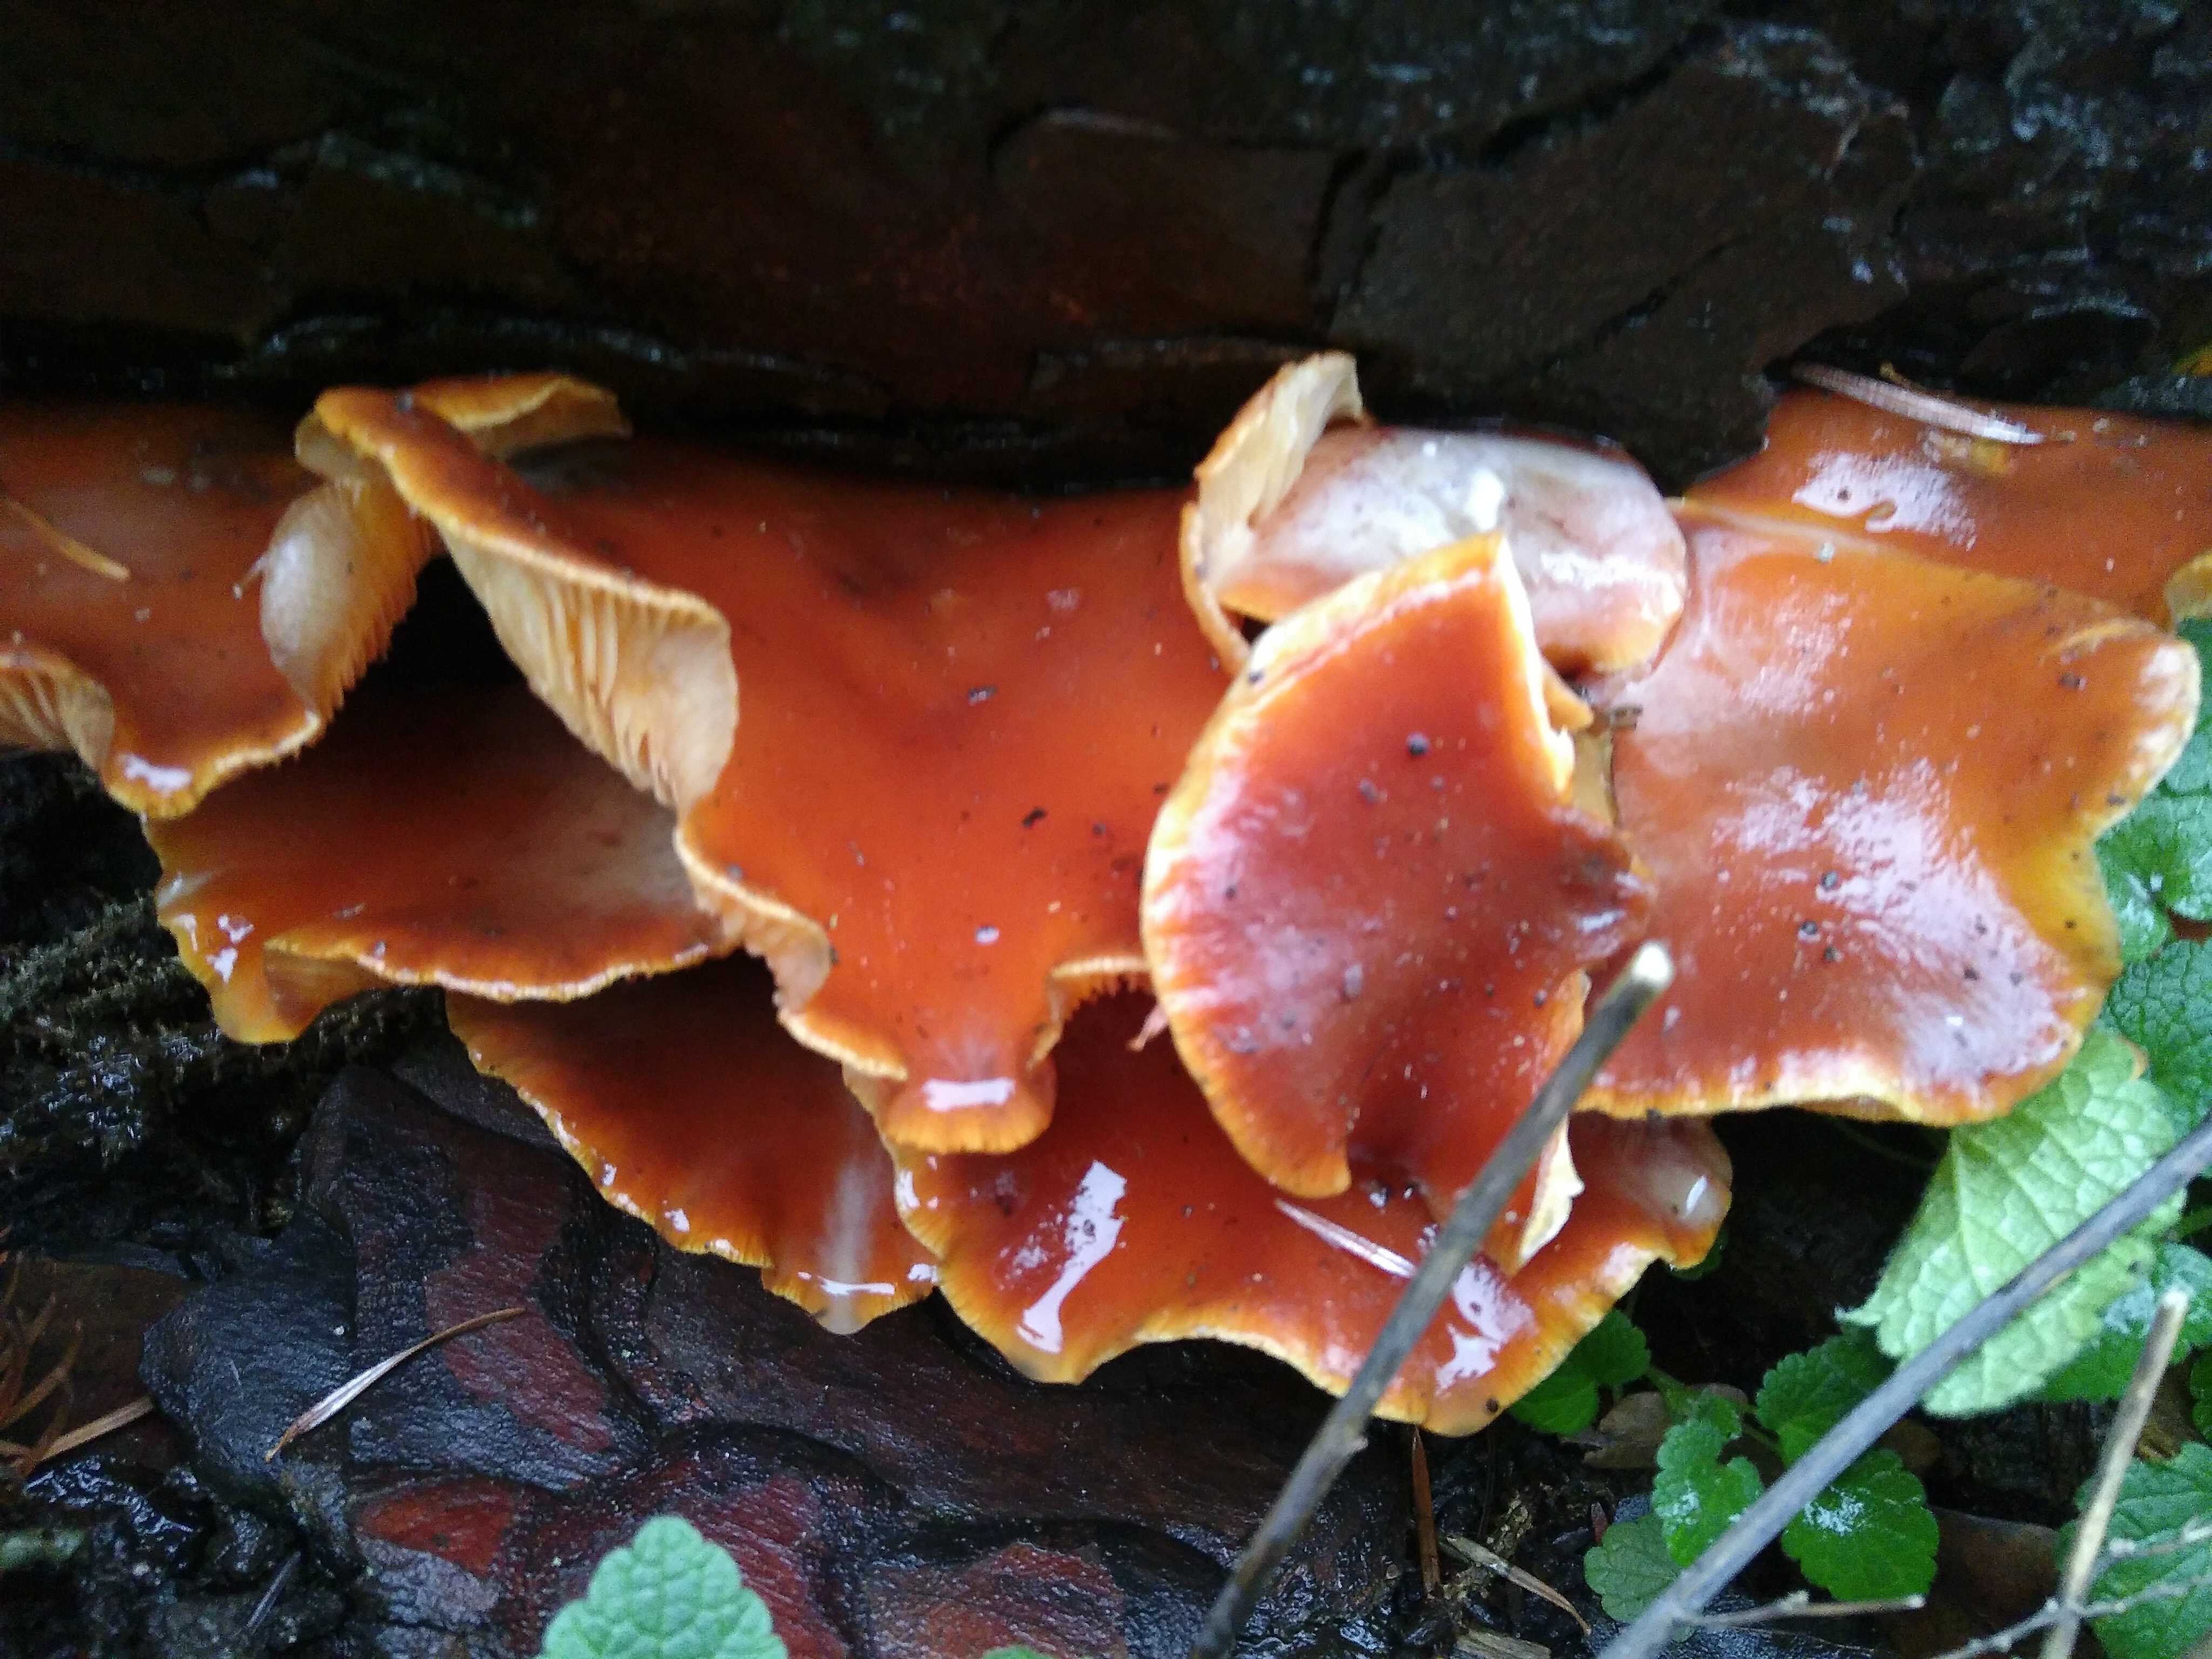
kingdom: Fungi
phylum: Basidiomycota
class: Agaricomycetes
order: Agaricales
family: Physalacriaceae
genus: Flammulina
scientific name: Flammulina velutipes
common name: gul fløjlsfod
